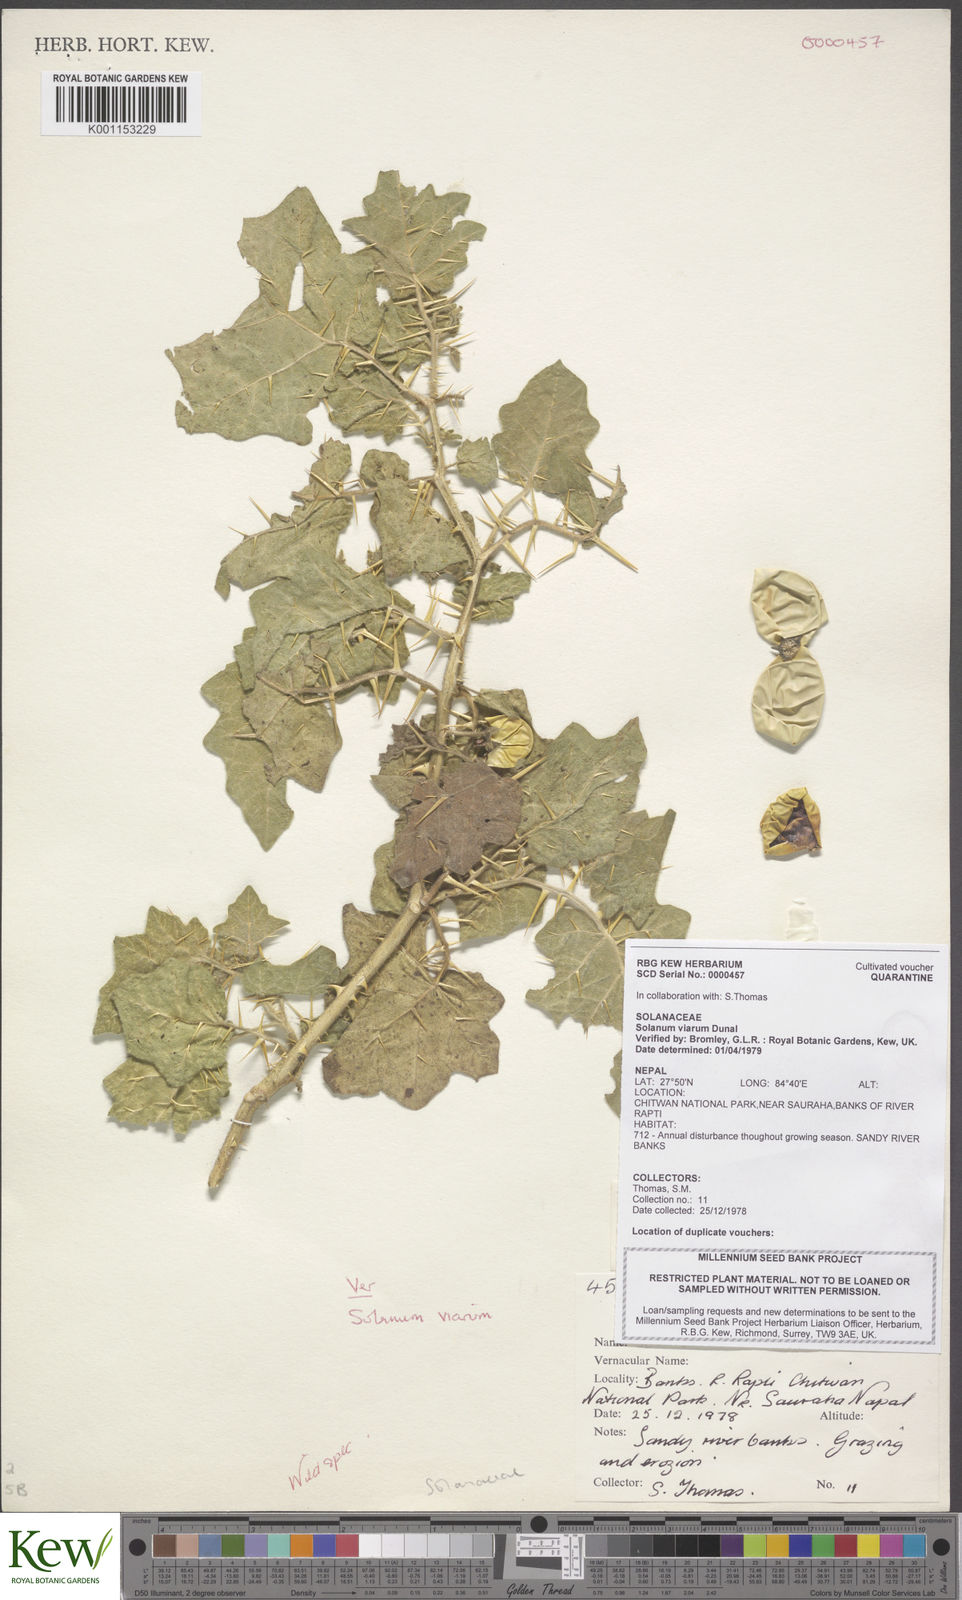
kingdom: Plantae
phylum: Tracheophyta
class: Magnoliopsida
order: Solanales
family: Solanaceae
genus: Solanum
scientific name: Solanum viarum
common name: Tropical soda apple
